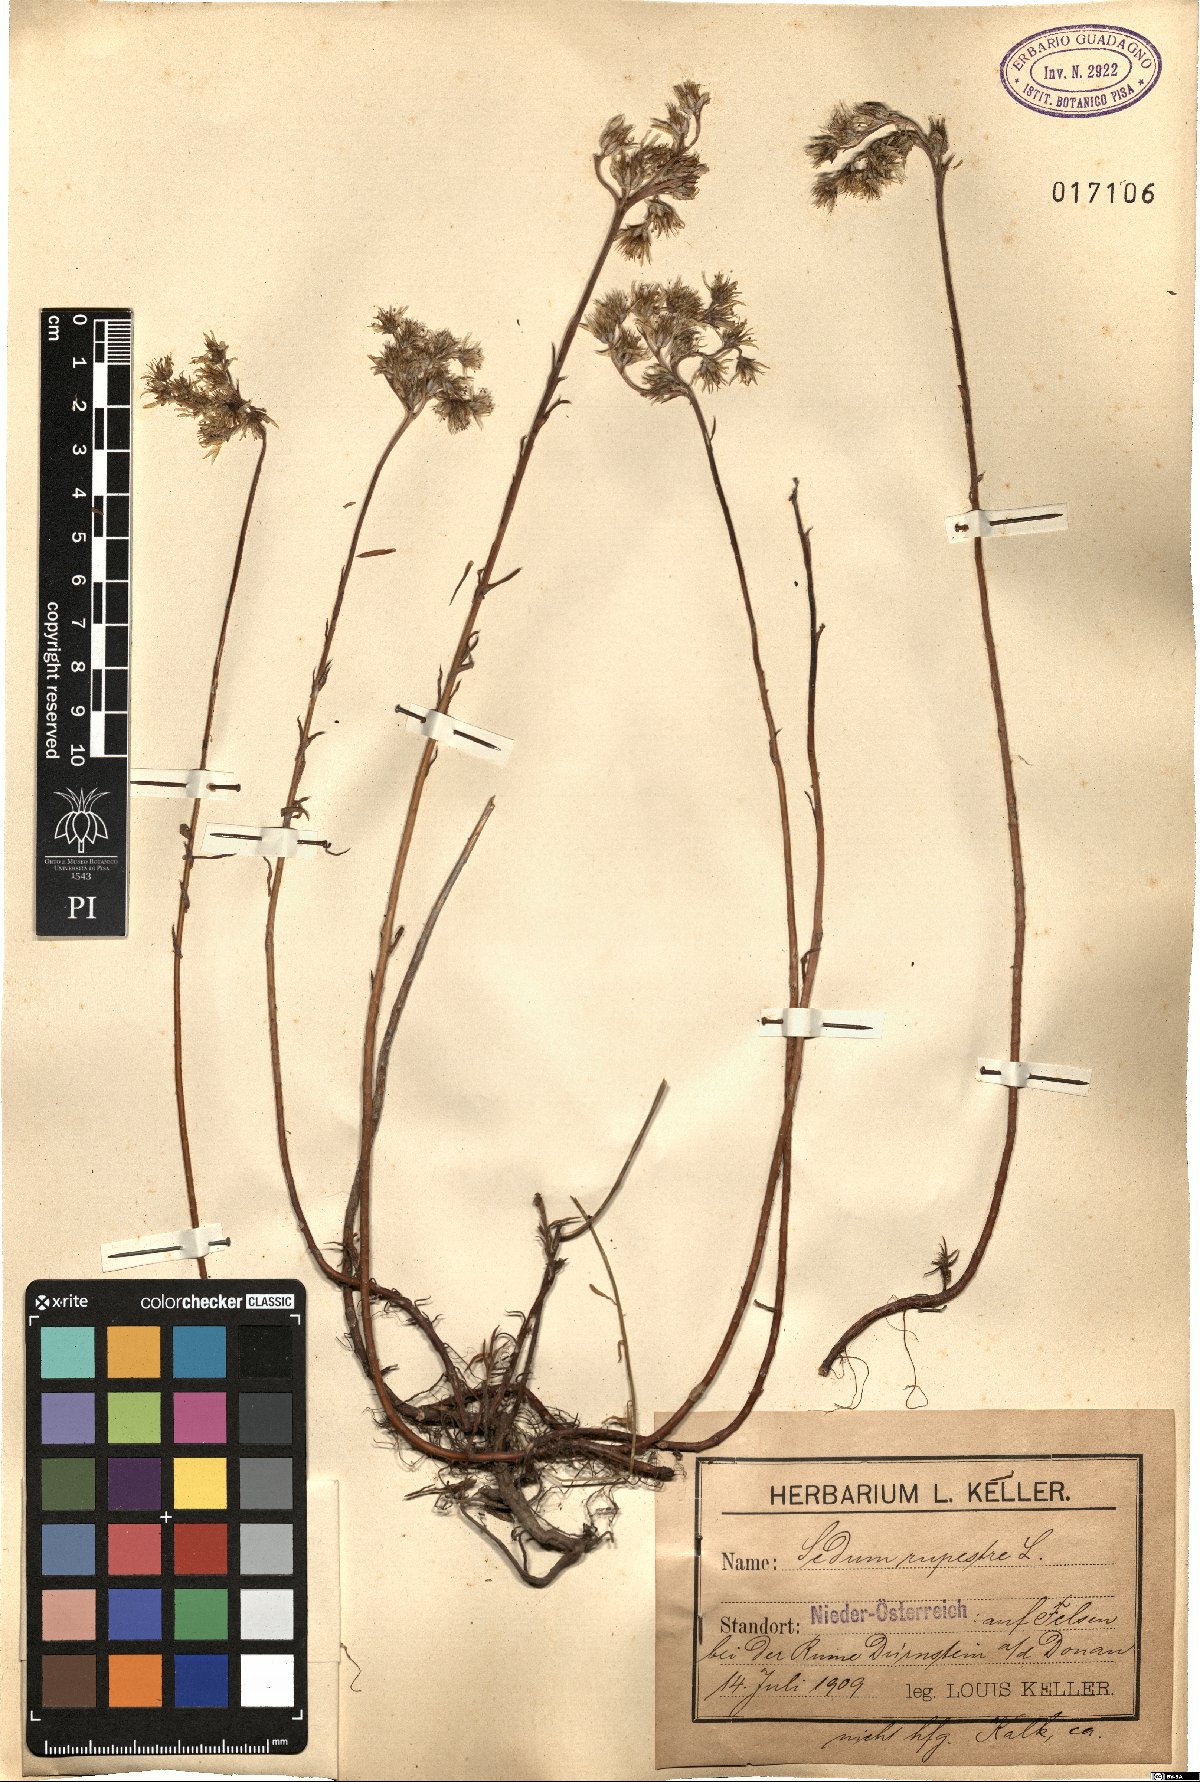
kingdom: Plantae
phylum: Tracheophyta
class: Magnoliopsida
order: Saxifragales
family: Crassulaceae
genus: Petrosedum
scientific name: Petrosedum rupestre
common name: Jenny's stonecrop
